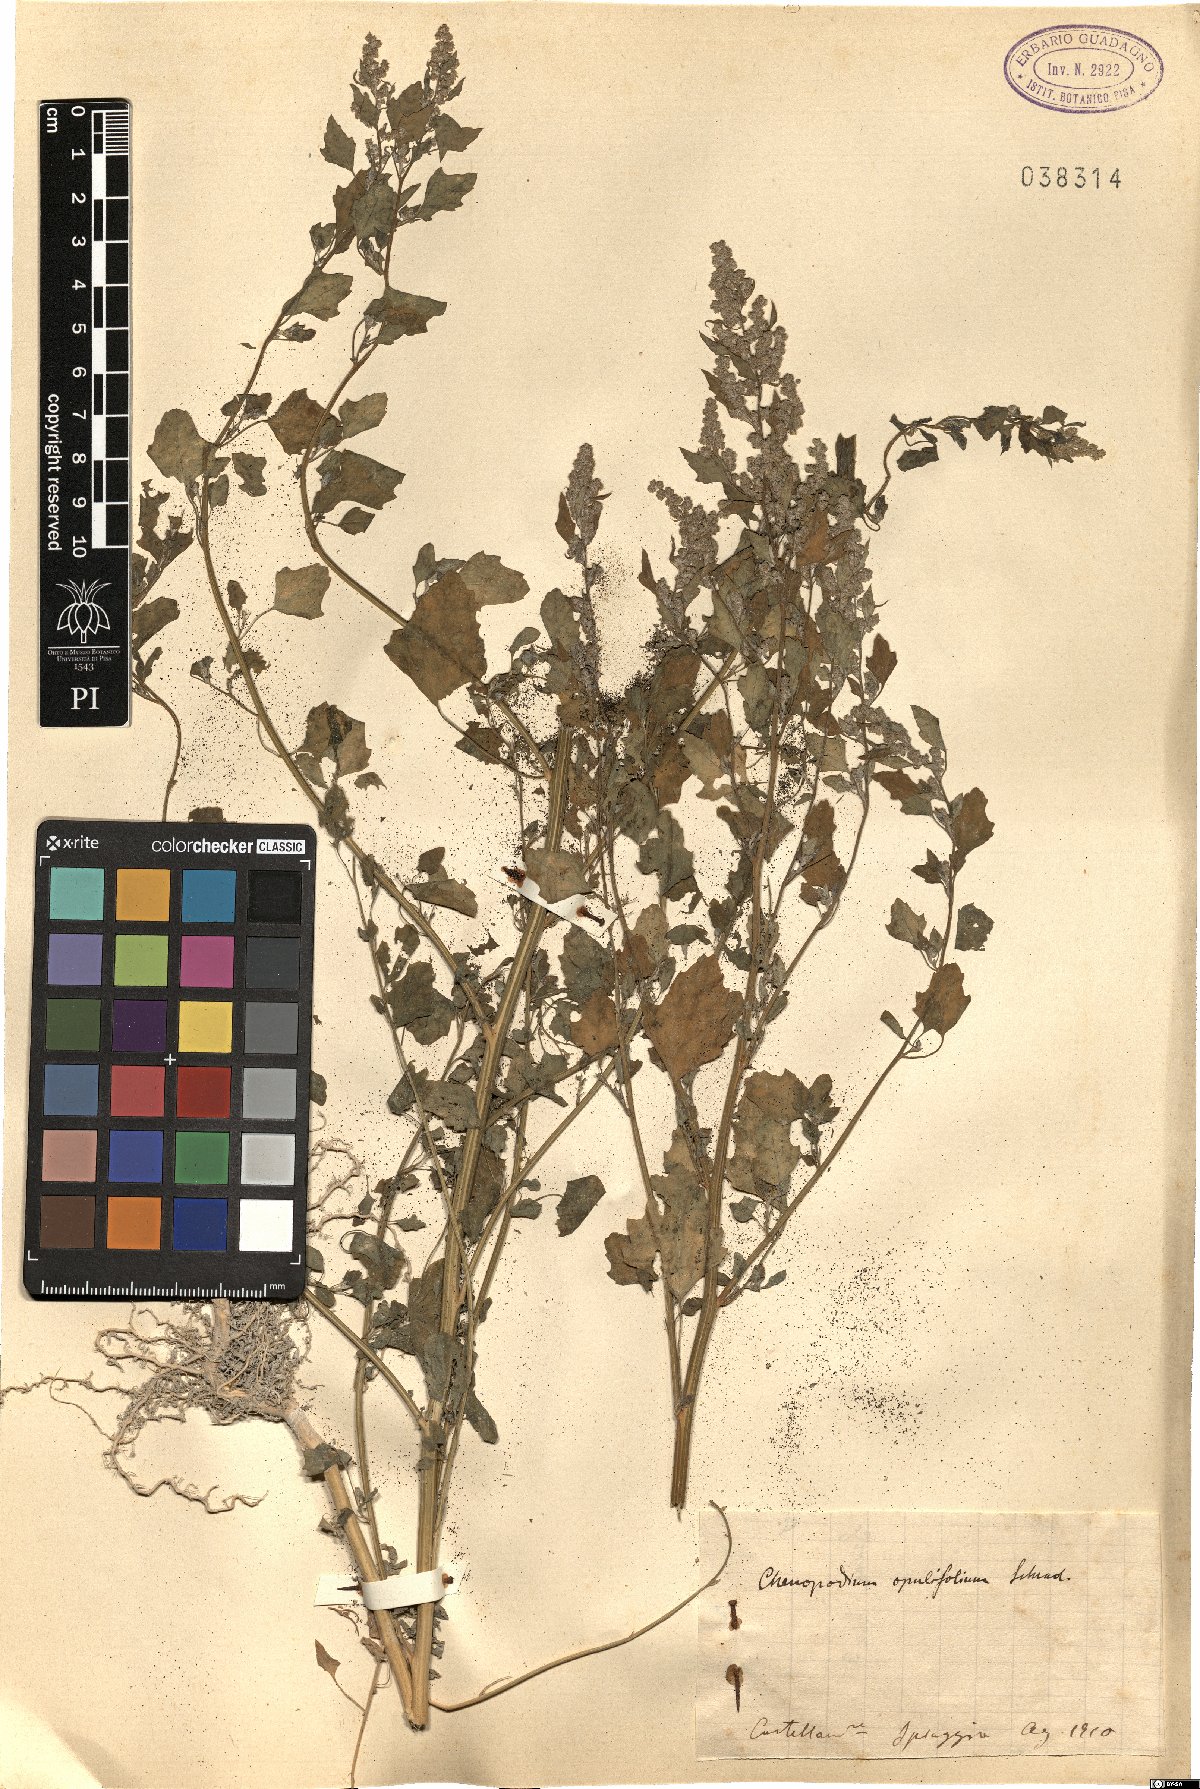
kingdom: Plantae
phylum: Tracheophyta
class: Magnoliopsida
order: Caryophyllales
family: Amaranthaceae
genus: Chenopodium
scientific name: Chenopodium opulifolium
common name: Grey goosefoot
